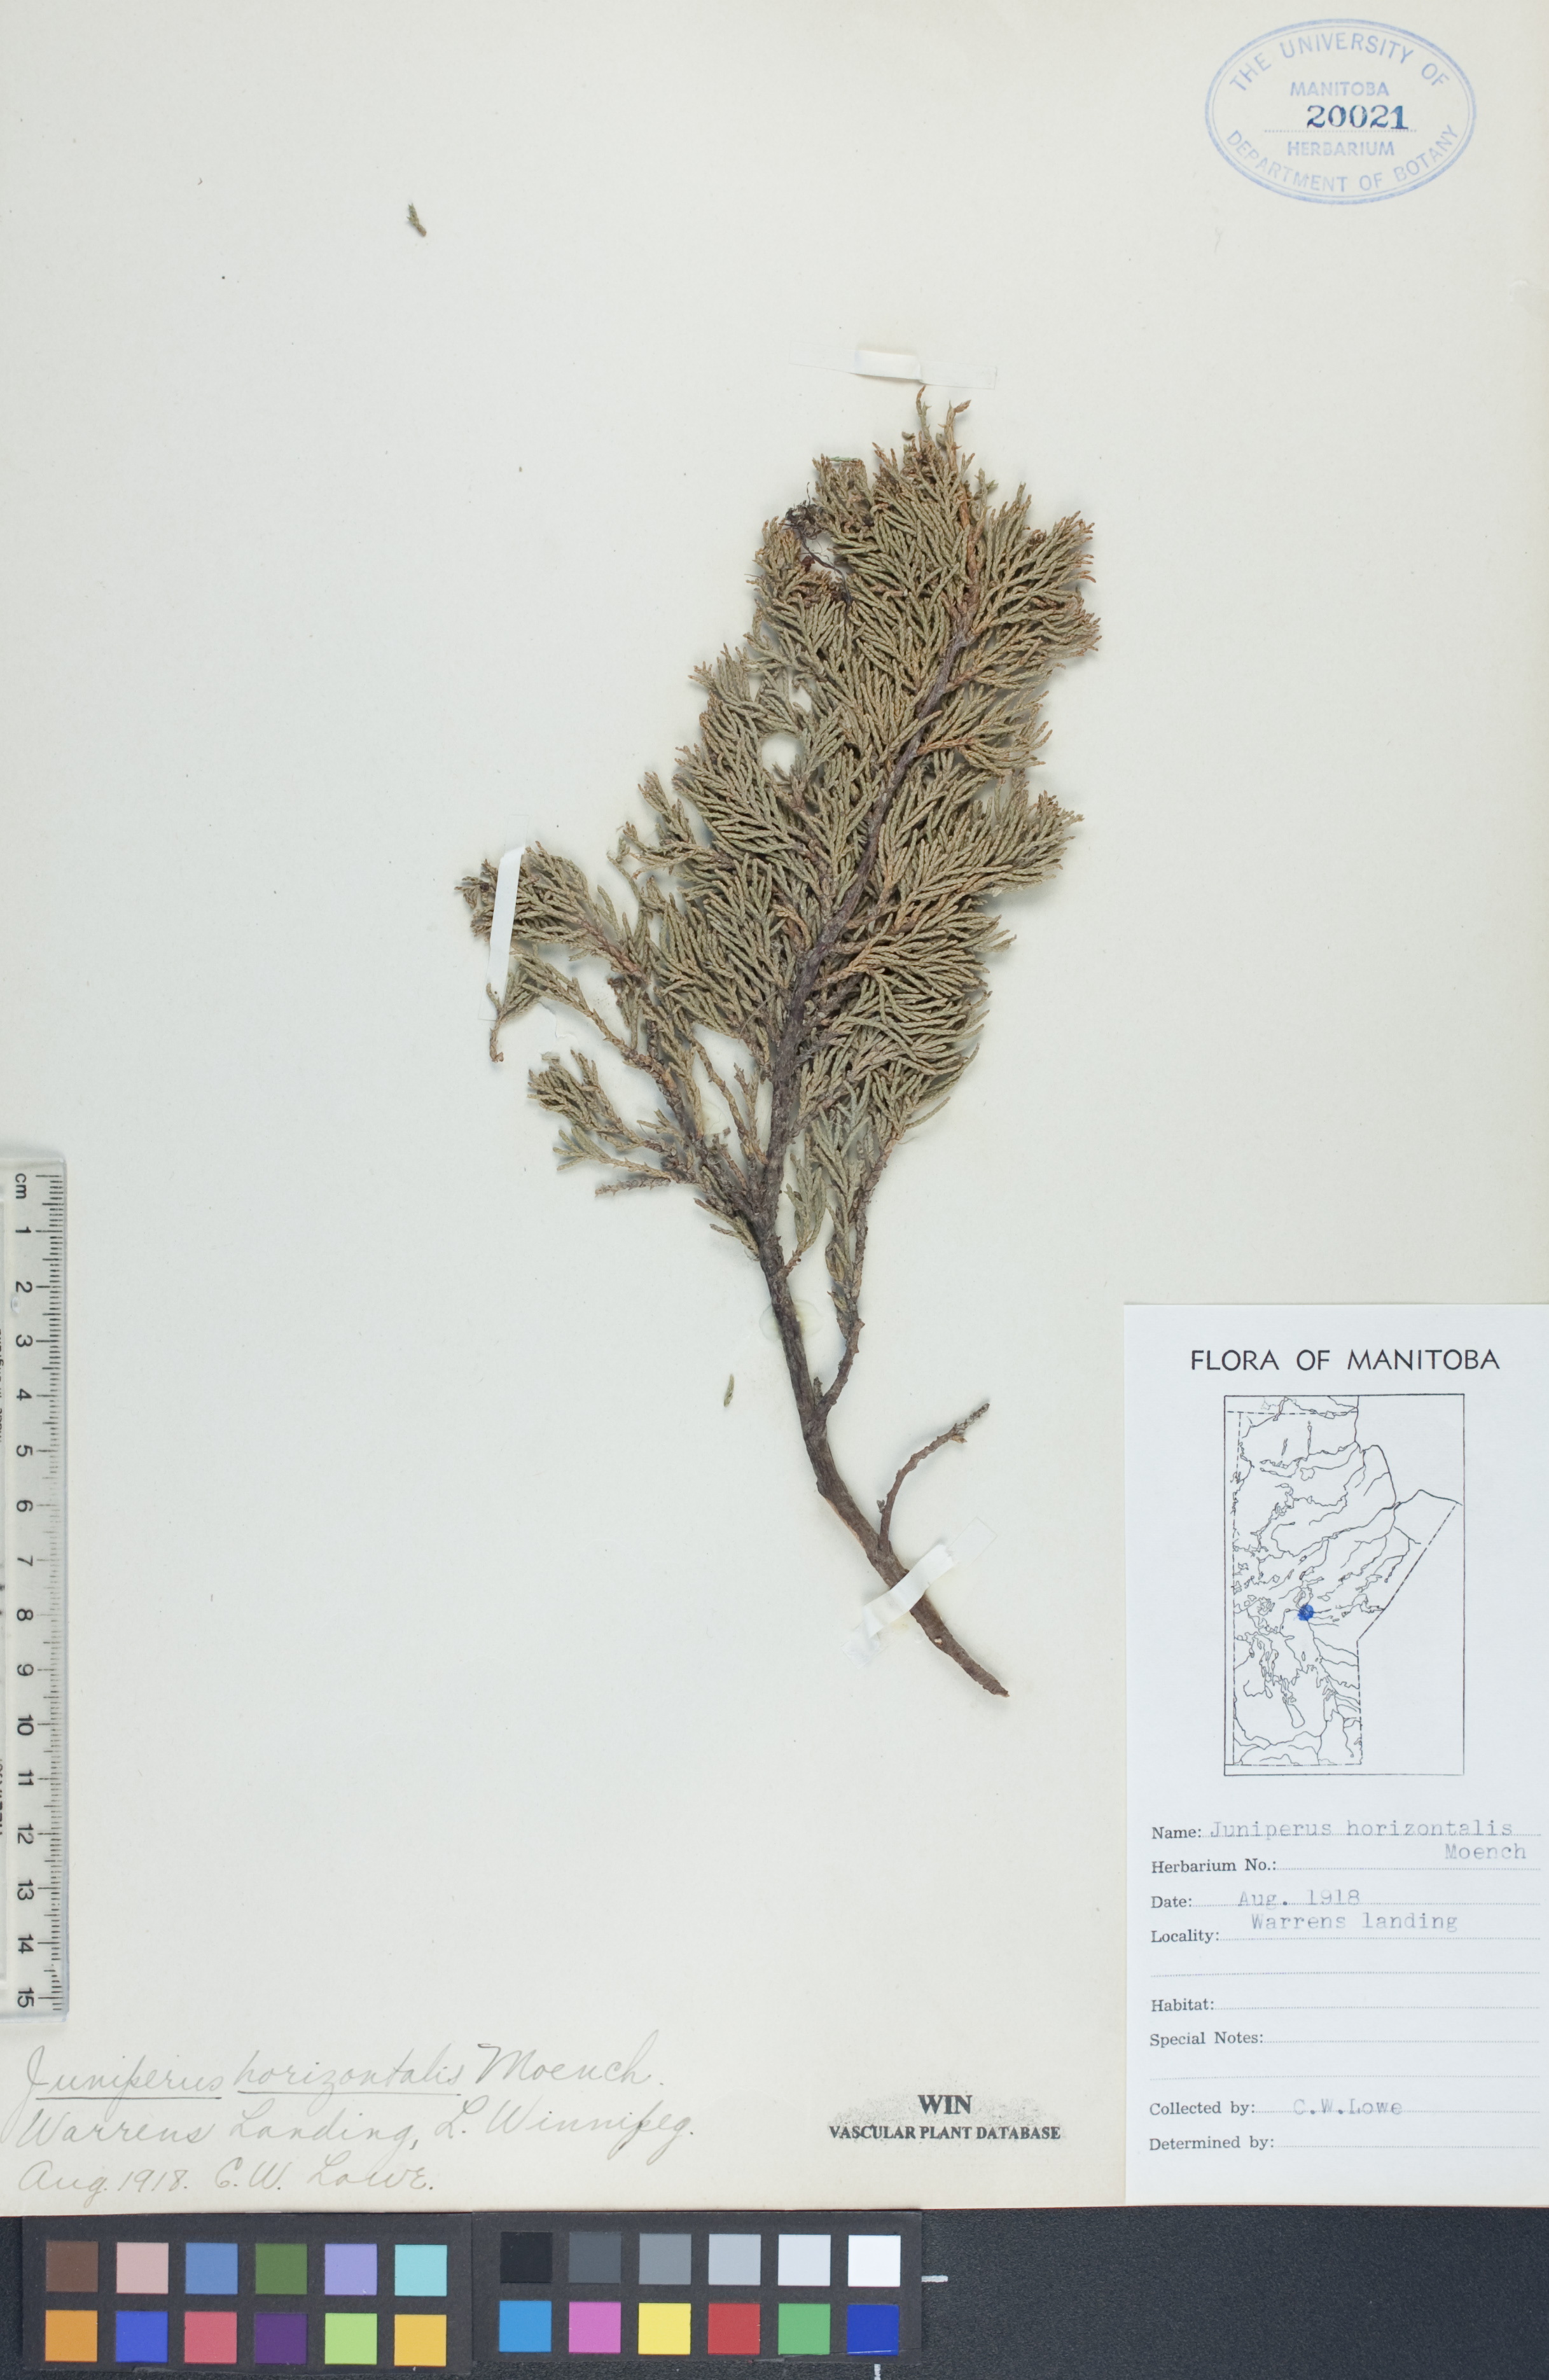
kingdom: Plantae
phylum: Tracheophyta
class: Pinopsida
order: Pinales
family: Cupressaceae
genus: Juniperus
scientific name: Juniperus horizontalis
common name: Creeping juniper
